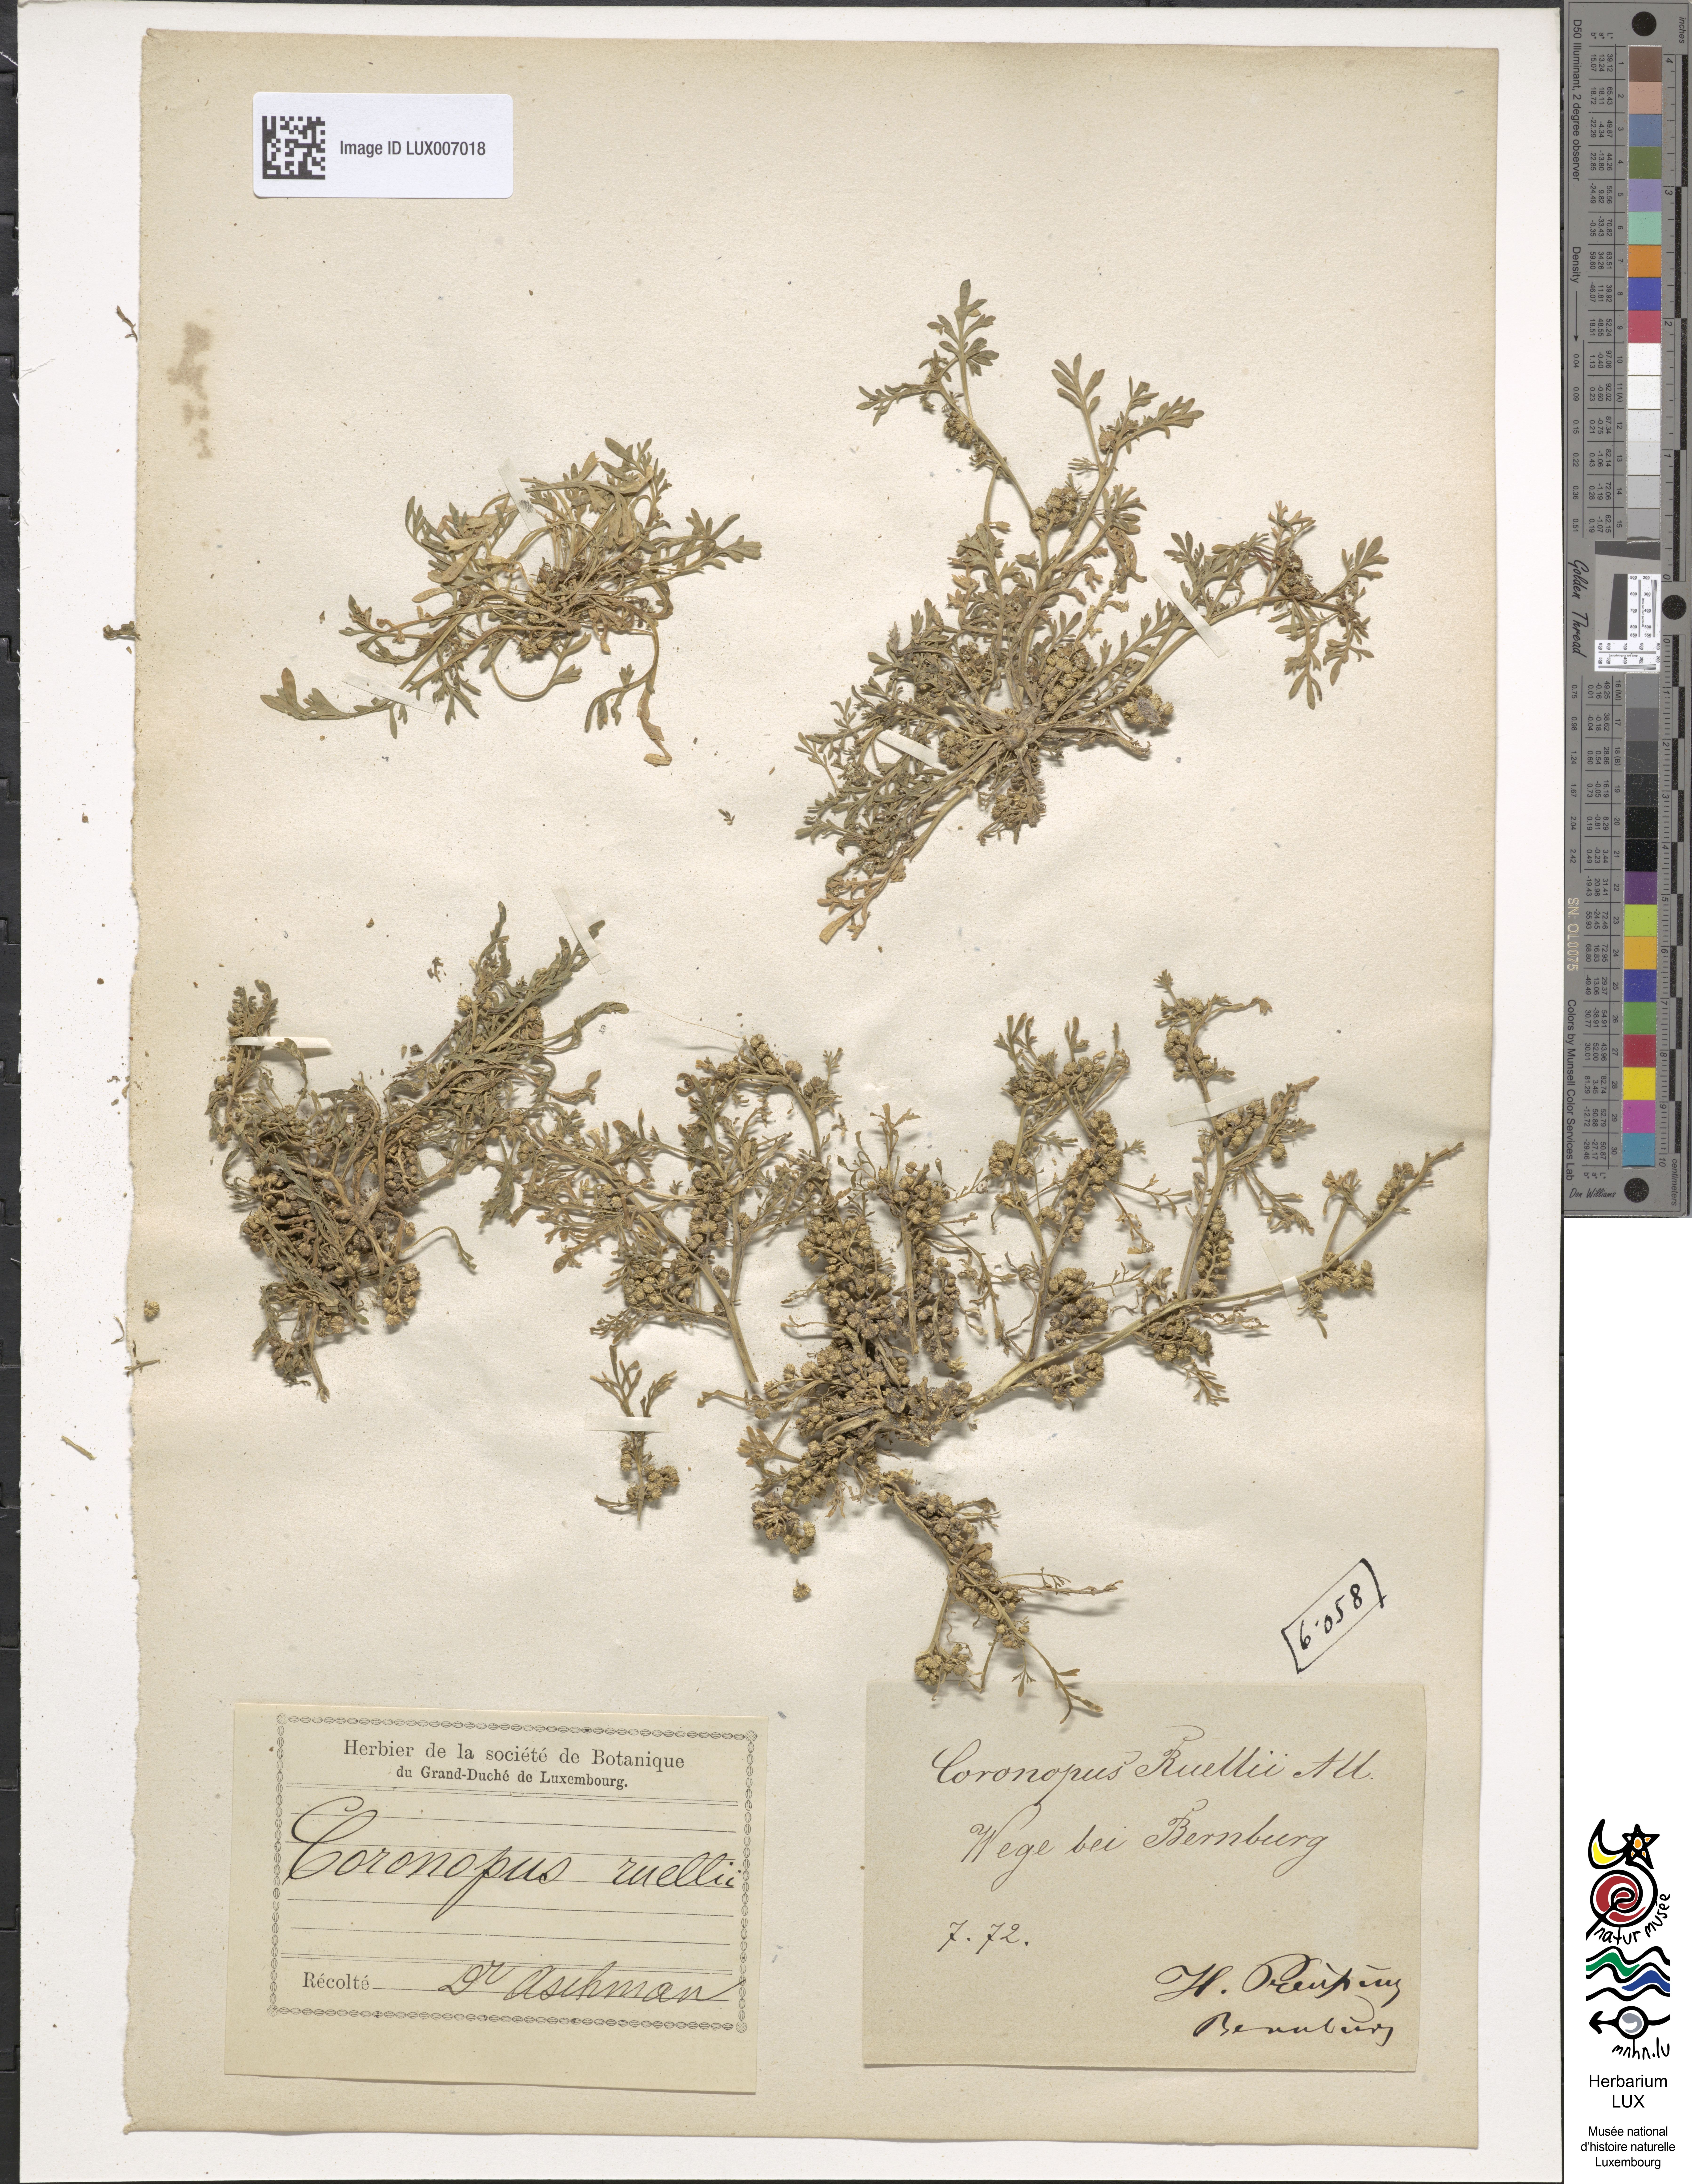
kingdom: Plantae
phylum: Tracheophyta
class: Magnoliopsida
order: Brassicales
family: Brassicaceae
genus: Lepidium
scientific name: Lepidium coronopus
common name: Greater swinecress
